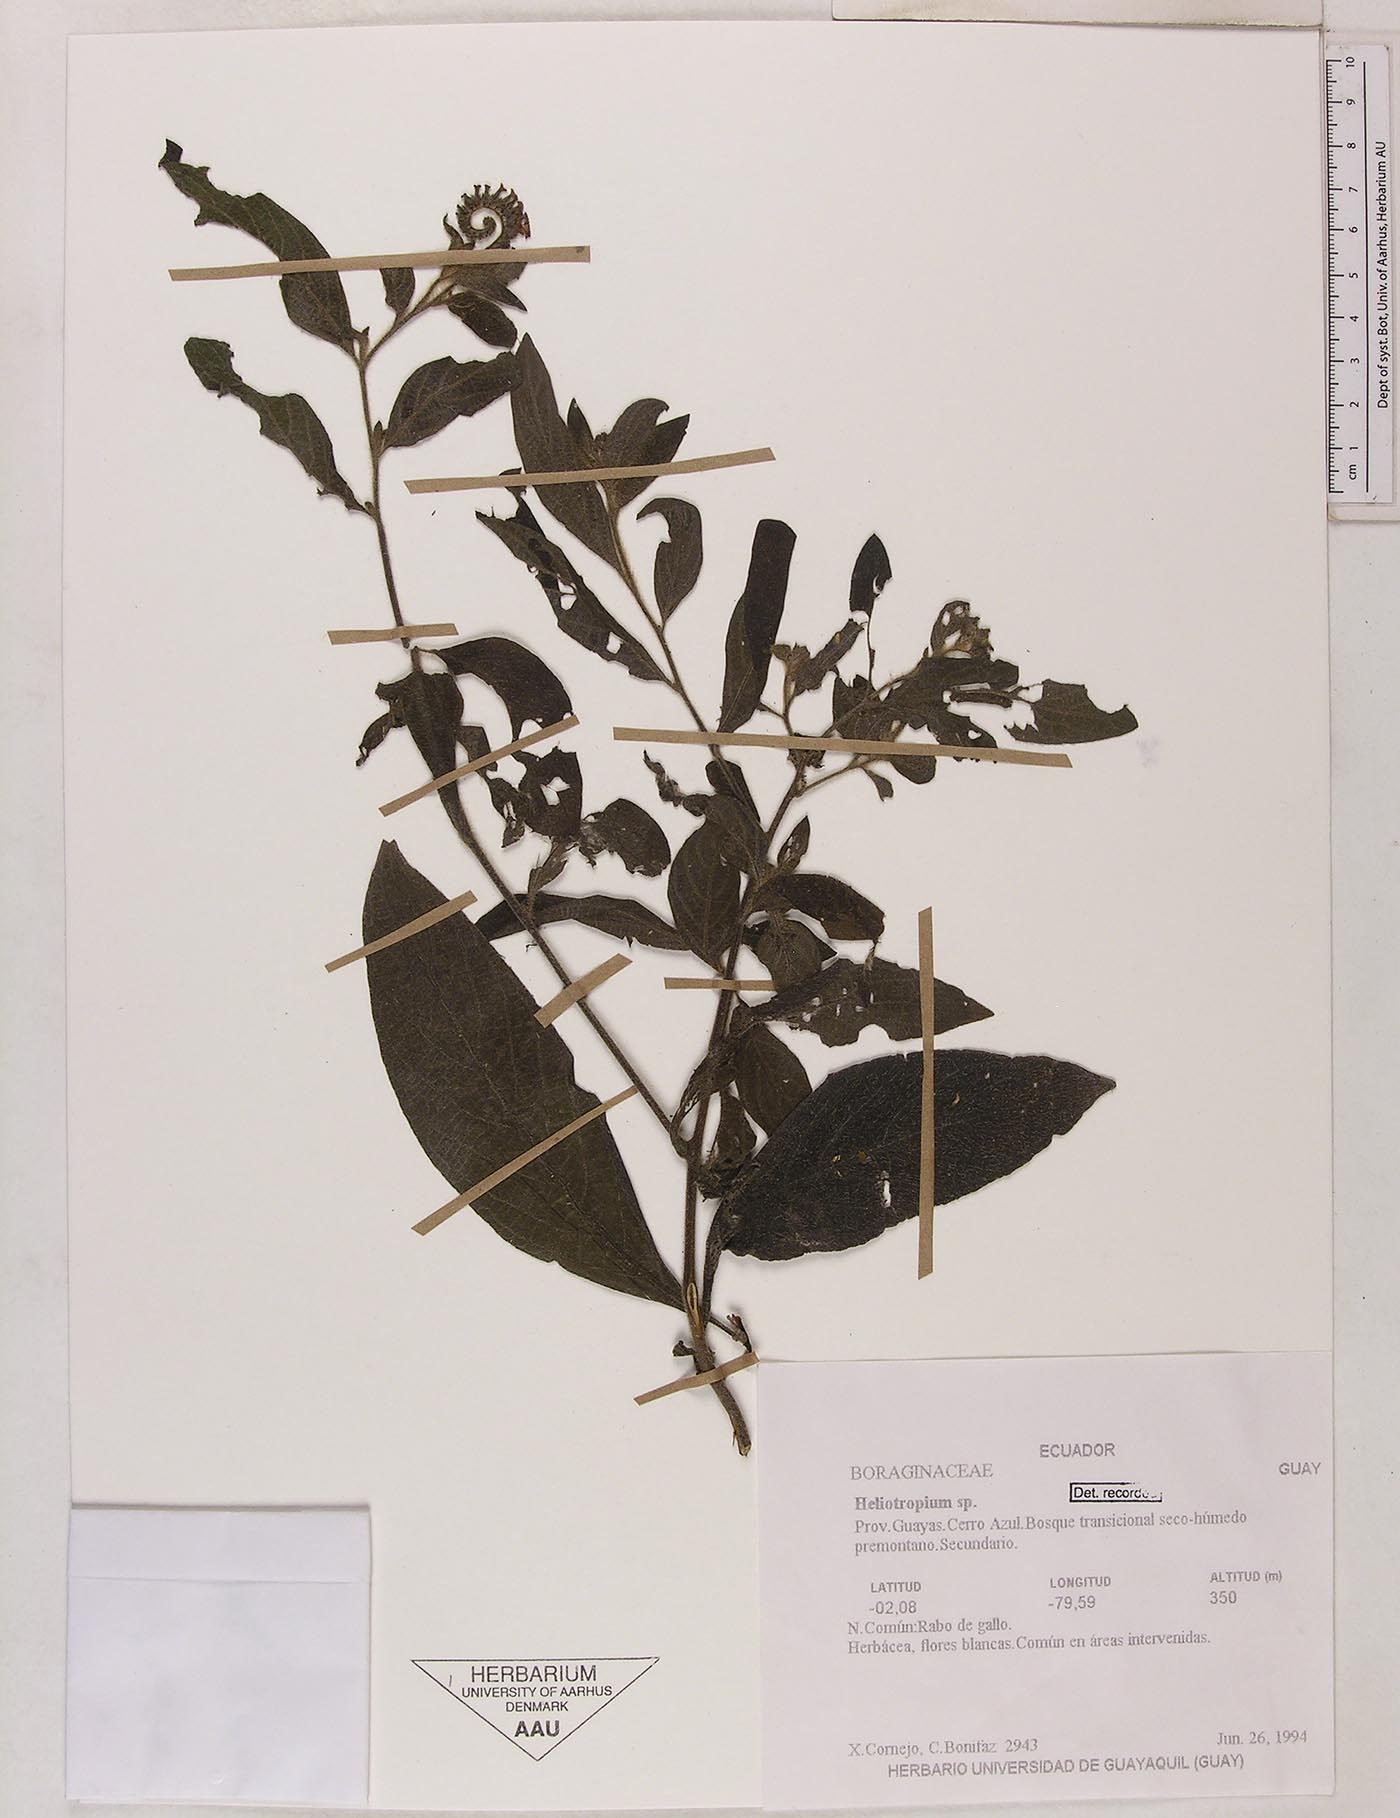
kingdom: Plantae
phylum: Tracheophyta
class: Magnoliopsida
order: Boraginales
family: Heliotropiaceae
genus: Heliotropium
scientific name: Heliotropium rufipilum
